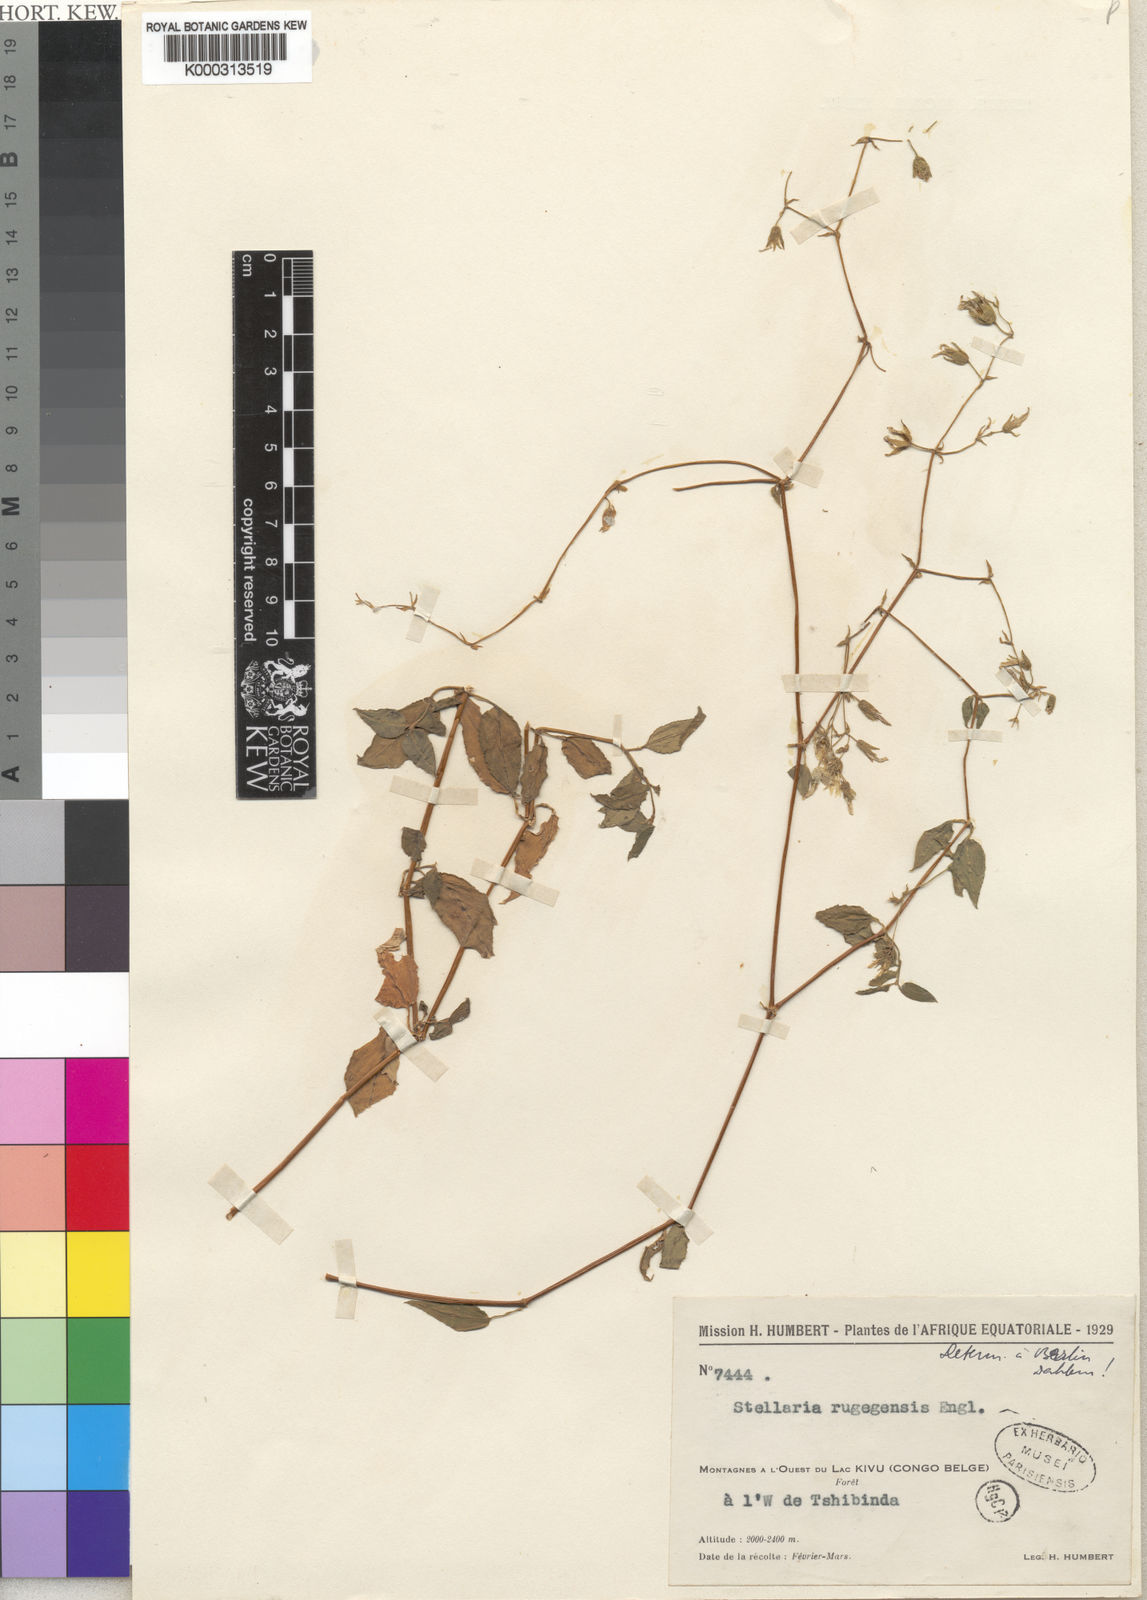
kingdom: Plantae
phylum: Tracheophyta
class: Magnoliopsida
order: Caryophyllales
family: Caryophyllaceae
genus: Stellaria
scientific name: Stellaria
